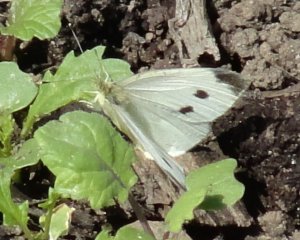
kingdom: Animalia
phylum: Arthropoda
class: Insecta
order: Lepidoptera
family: Pieridae
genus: Pieris
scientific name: Pieris rapae
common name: Cabbage White
